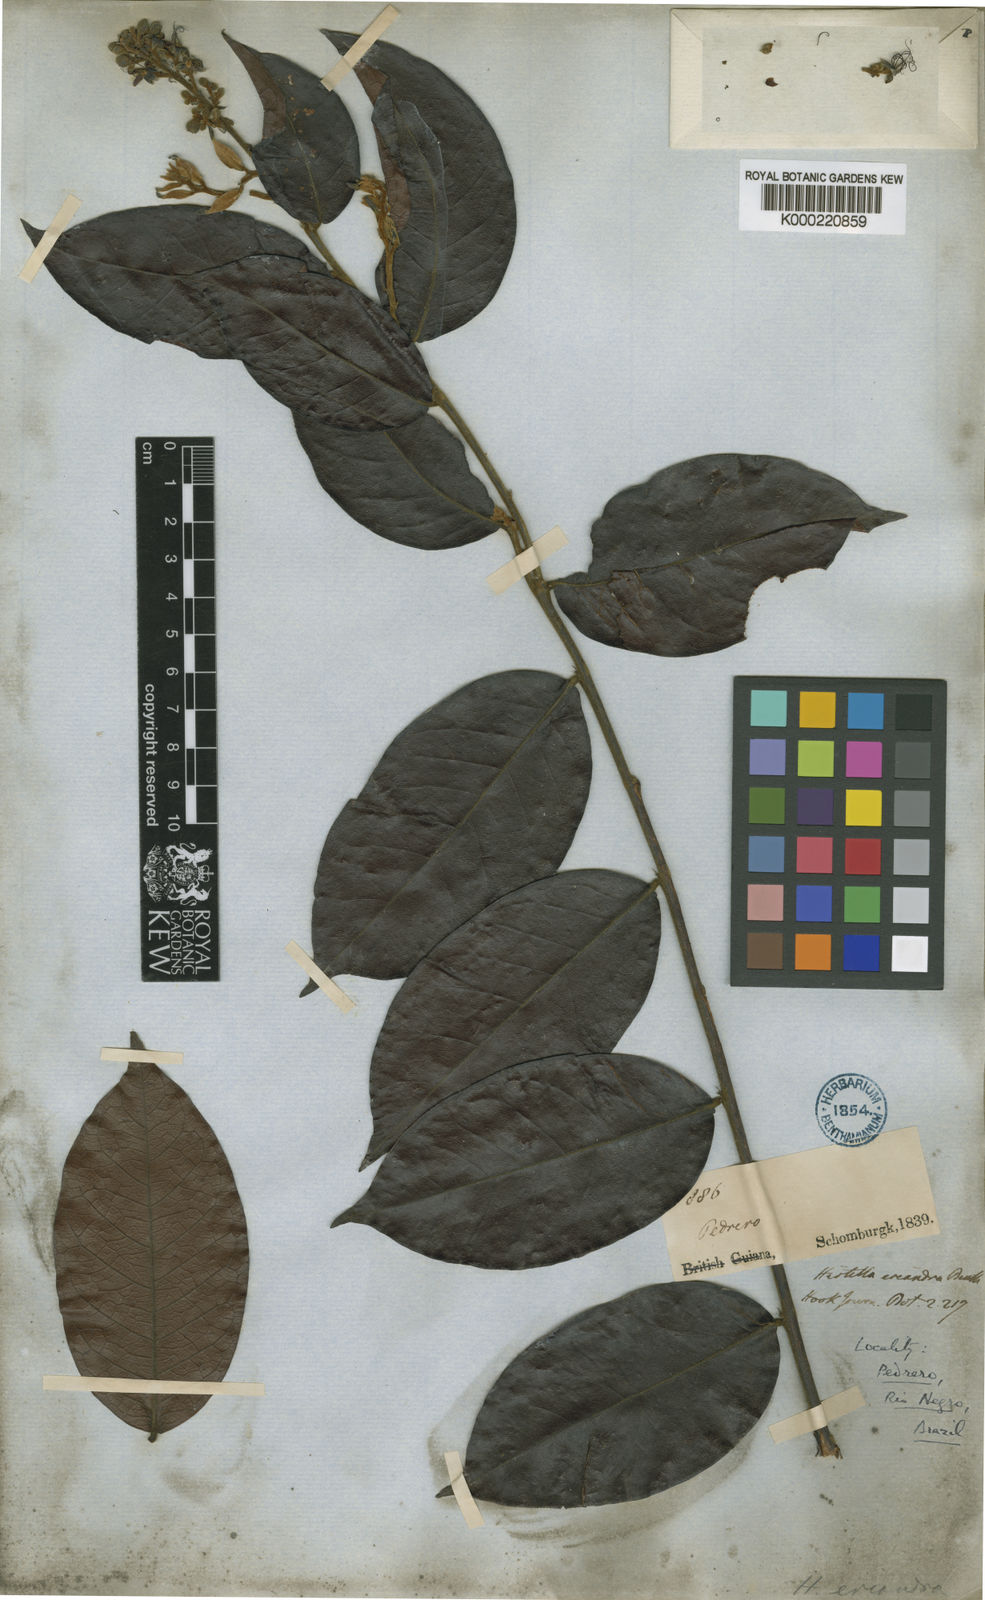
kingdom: Plantae
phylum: Tracheophyta
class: Magnoliopsida
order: Malpighiales
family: Chrysobalanaceae
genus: Hirtella
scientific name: Hirtella eriandra
